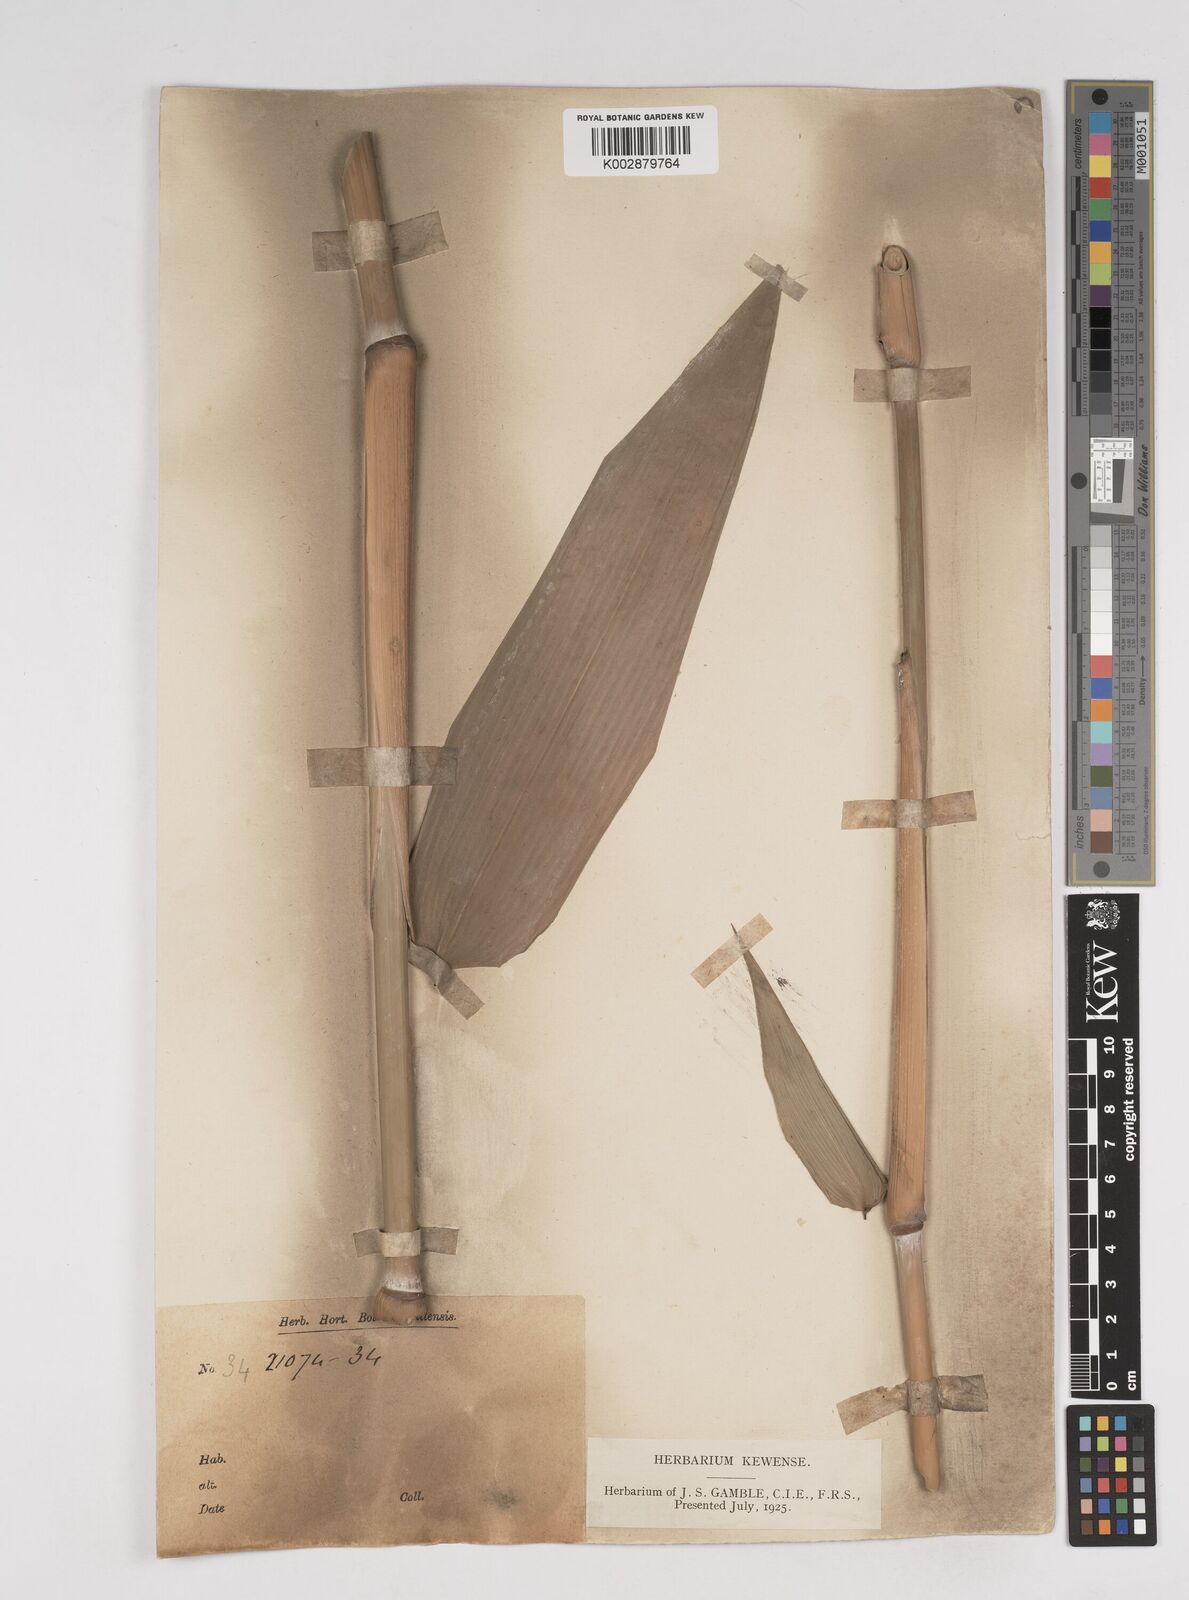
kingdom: Plantae
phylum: Tracheophyta
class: Liliopsida
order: Poales
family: Poaceae
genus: Gigantochloa
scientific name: Gigantochloa atter
